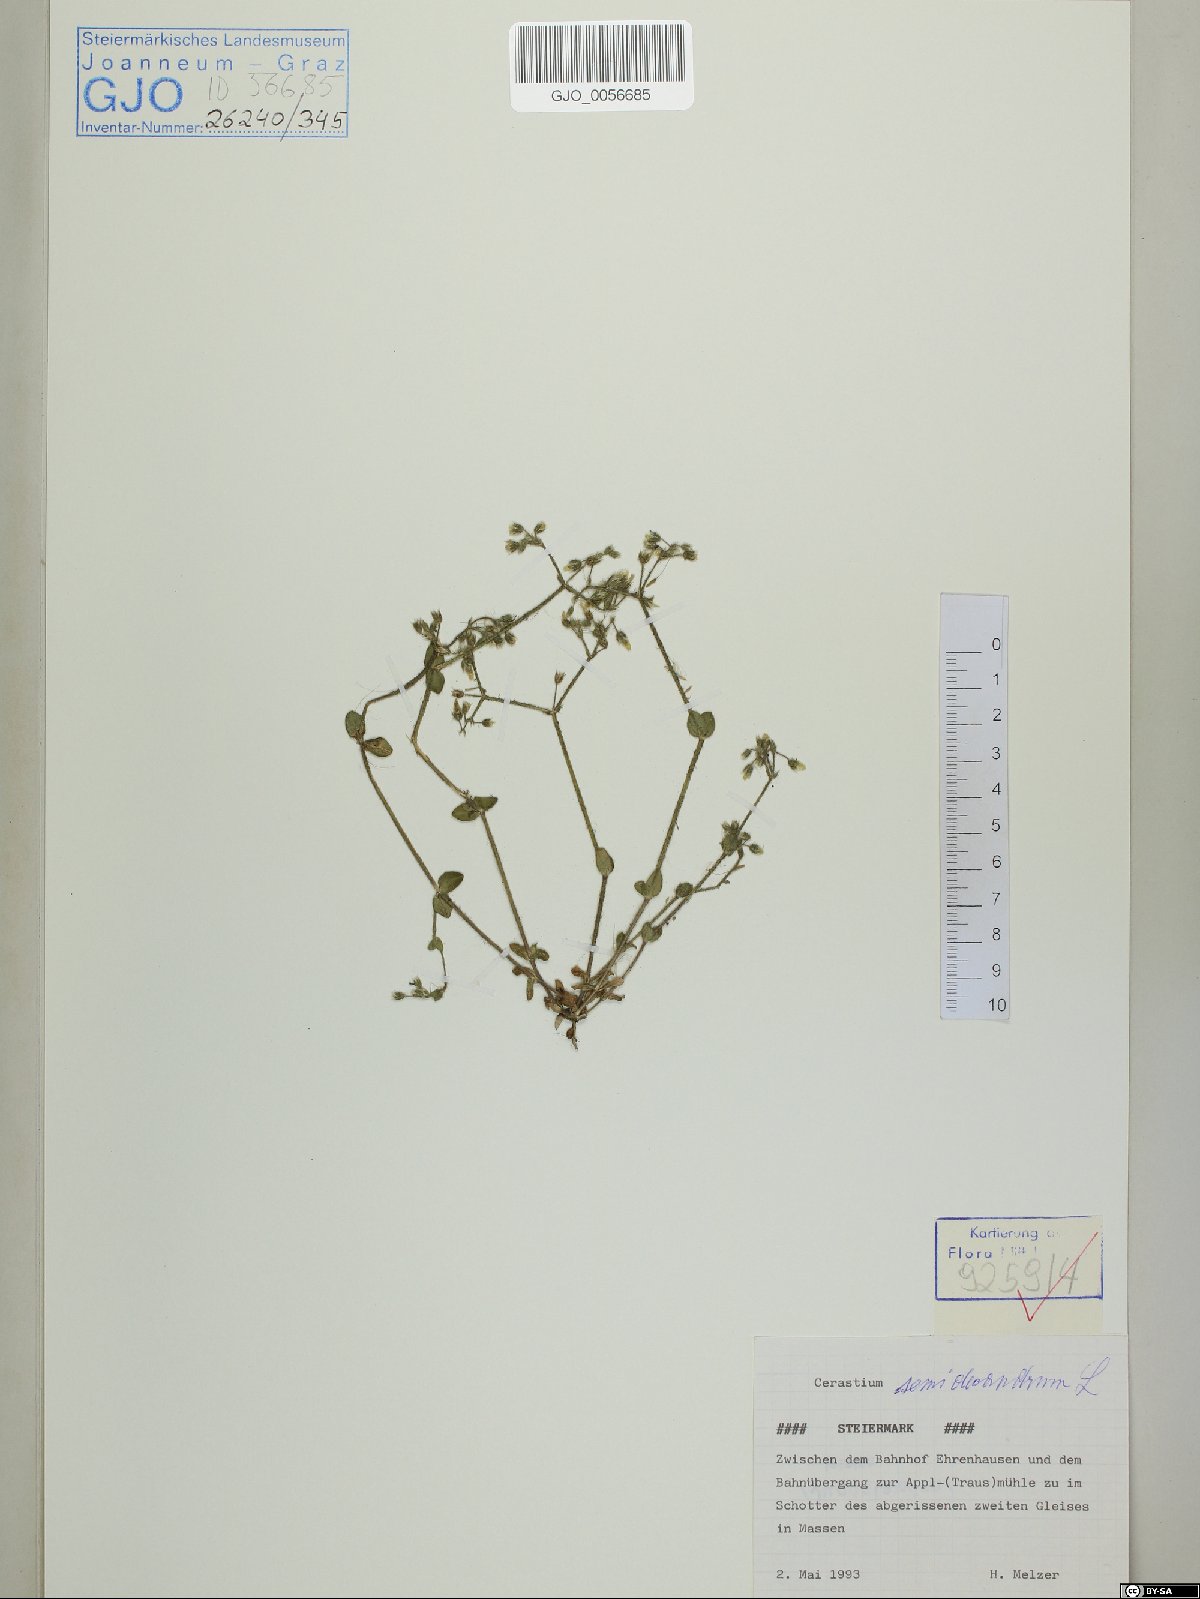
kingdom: Plantae
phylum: Tracheophyta
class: Magnoliopsida
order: Caryophyllales
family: Caryophyllaceae
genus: Cerastium
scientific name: Cerastium semidecandrum
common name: Little mouse-ear
